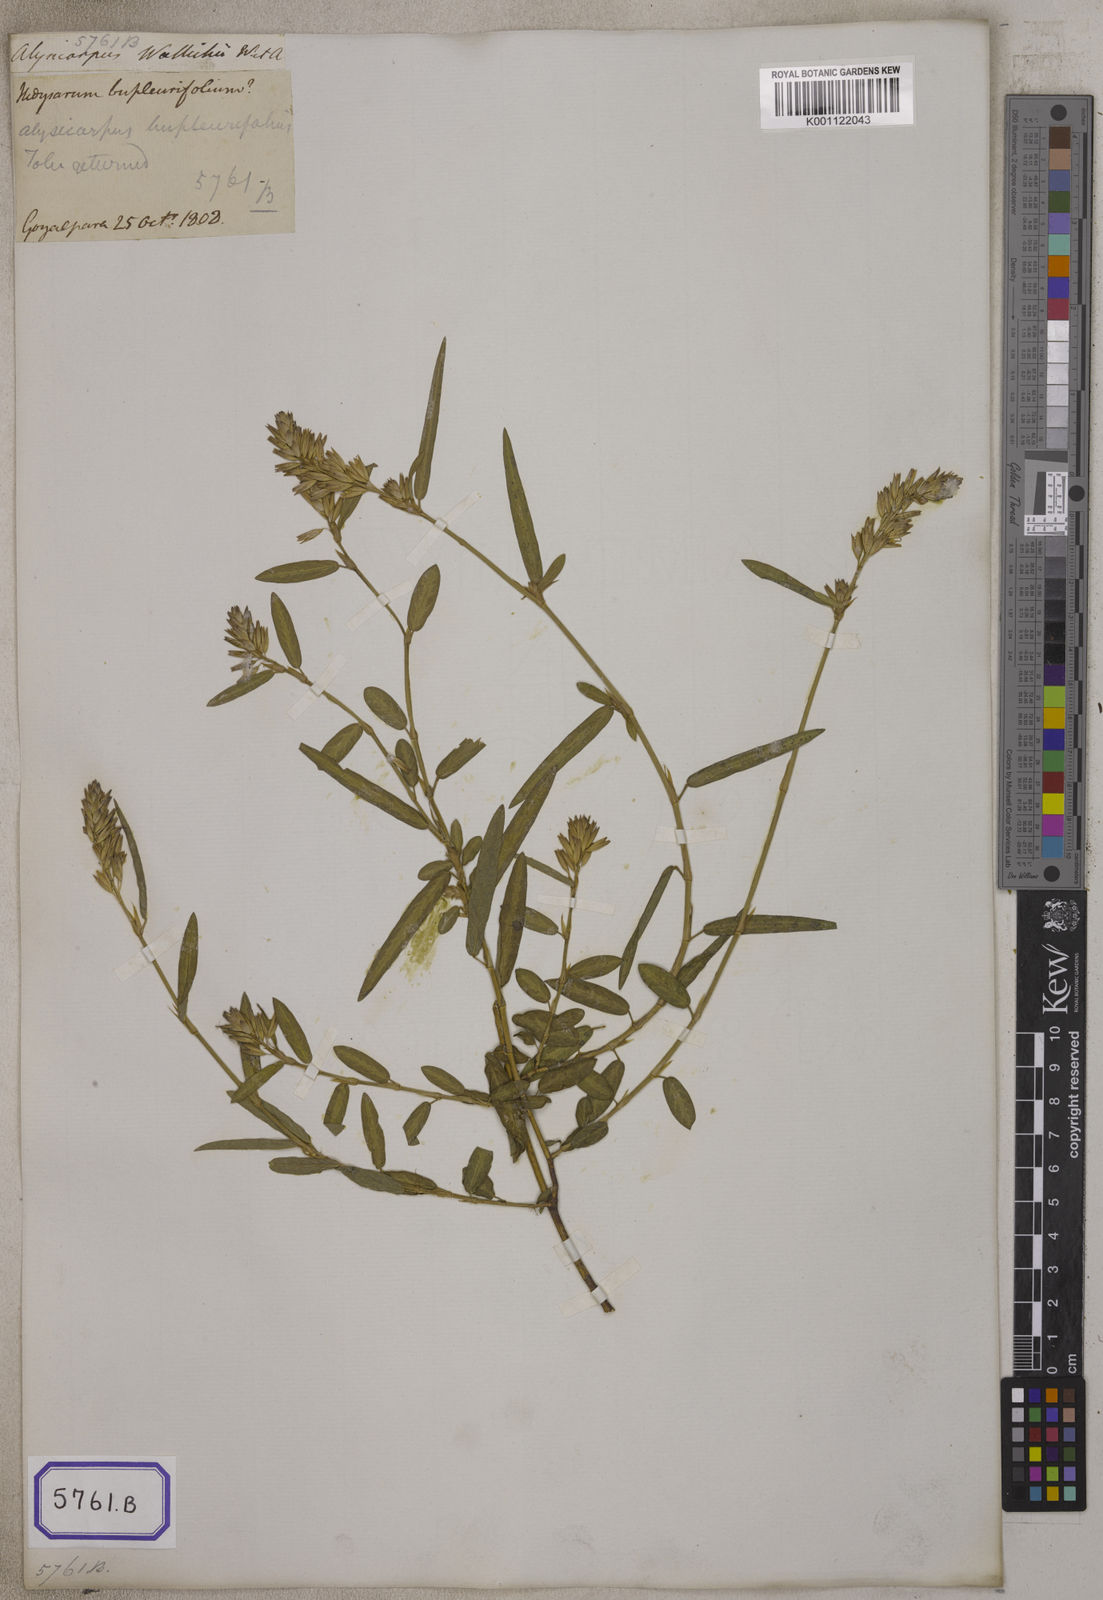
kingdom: Plantae
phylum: Tracheophyta
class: Magnoliopsida
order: Fabales
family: Fabaceae
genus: Alysicarpus
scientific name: Alysicarpus bupleurifolius
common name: Sweet alys
